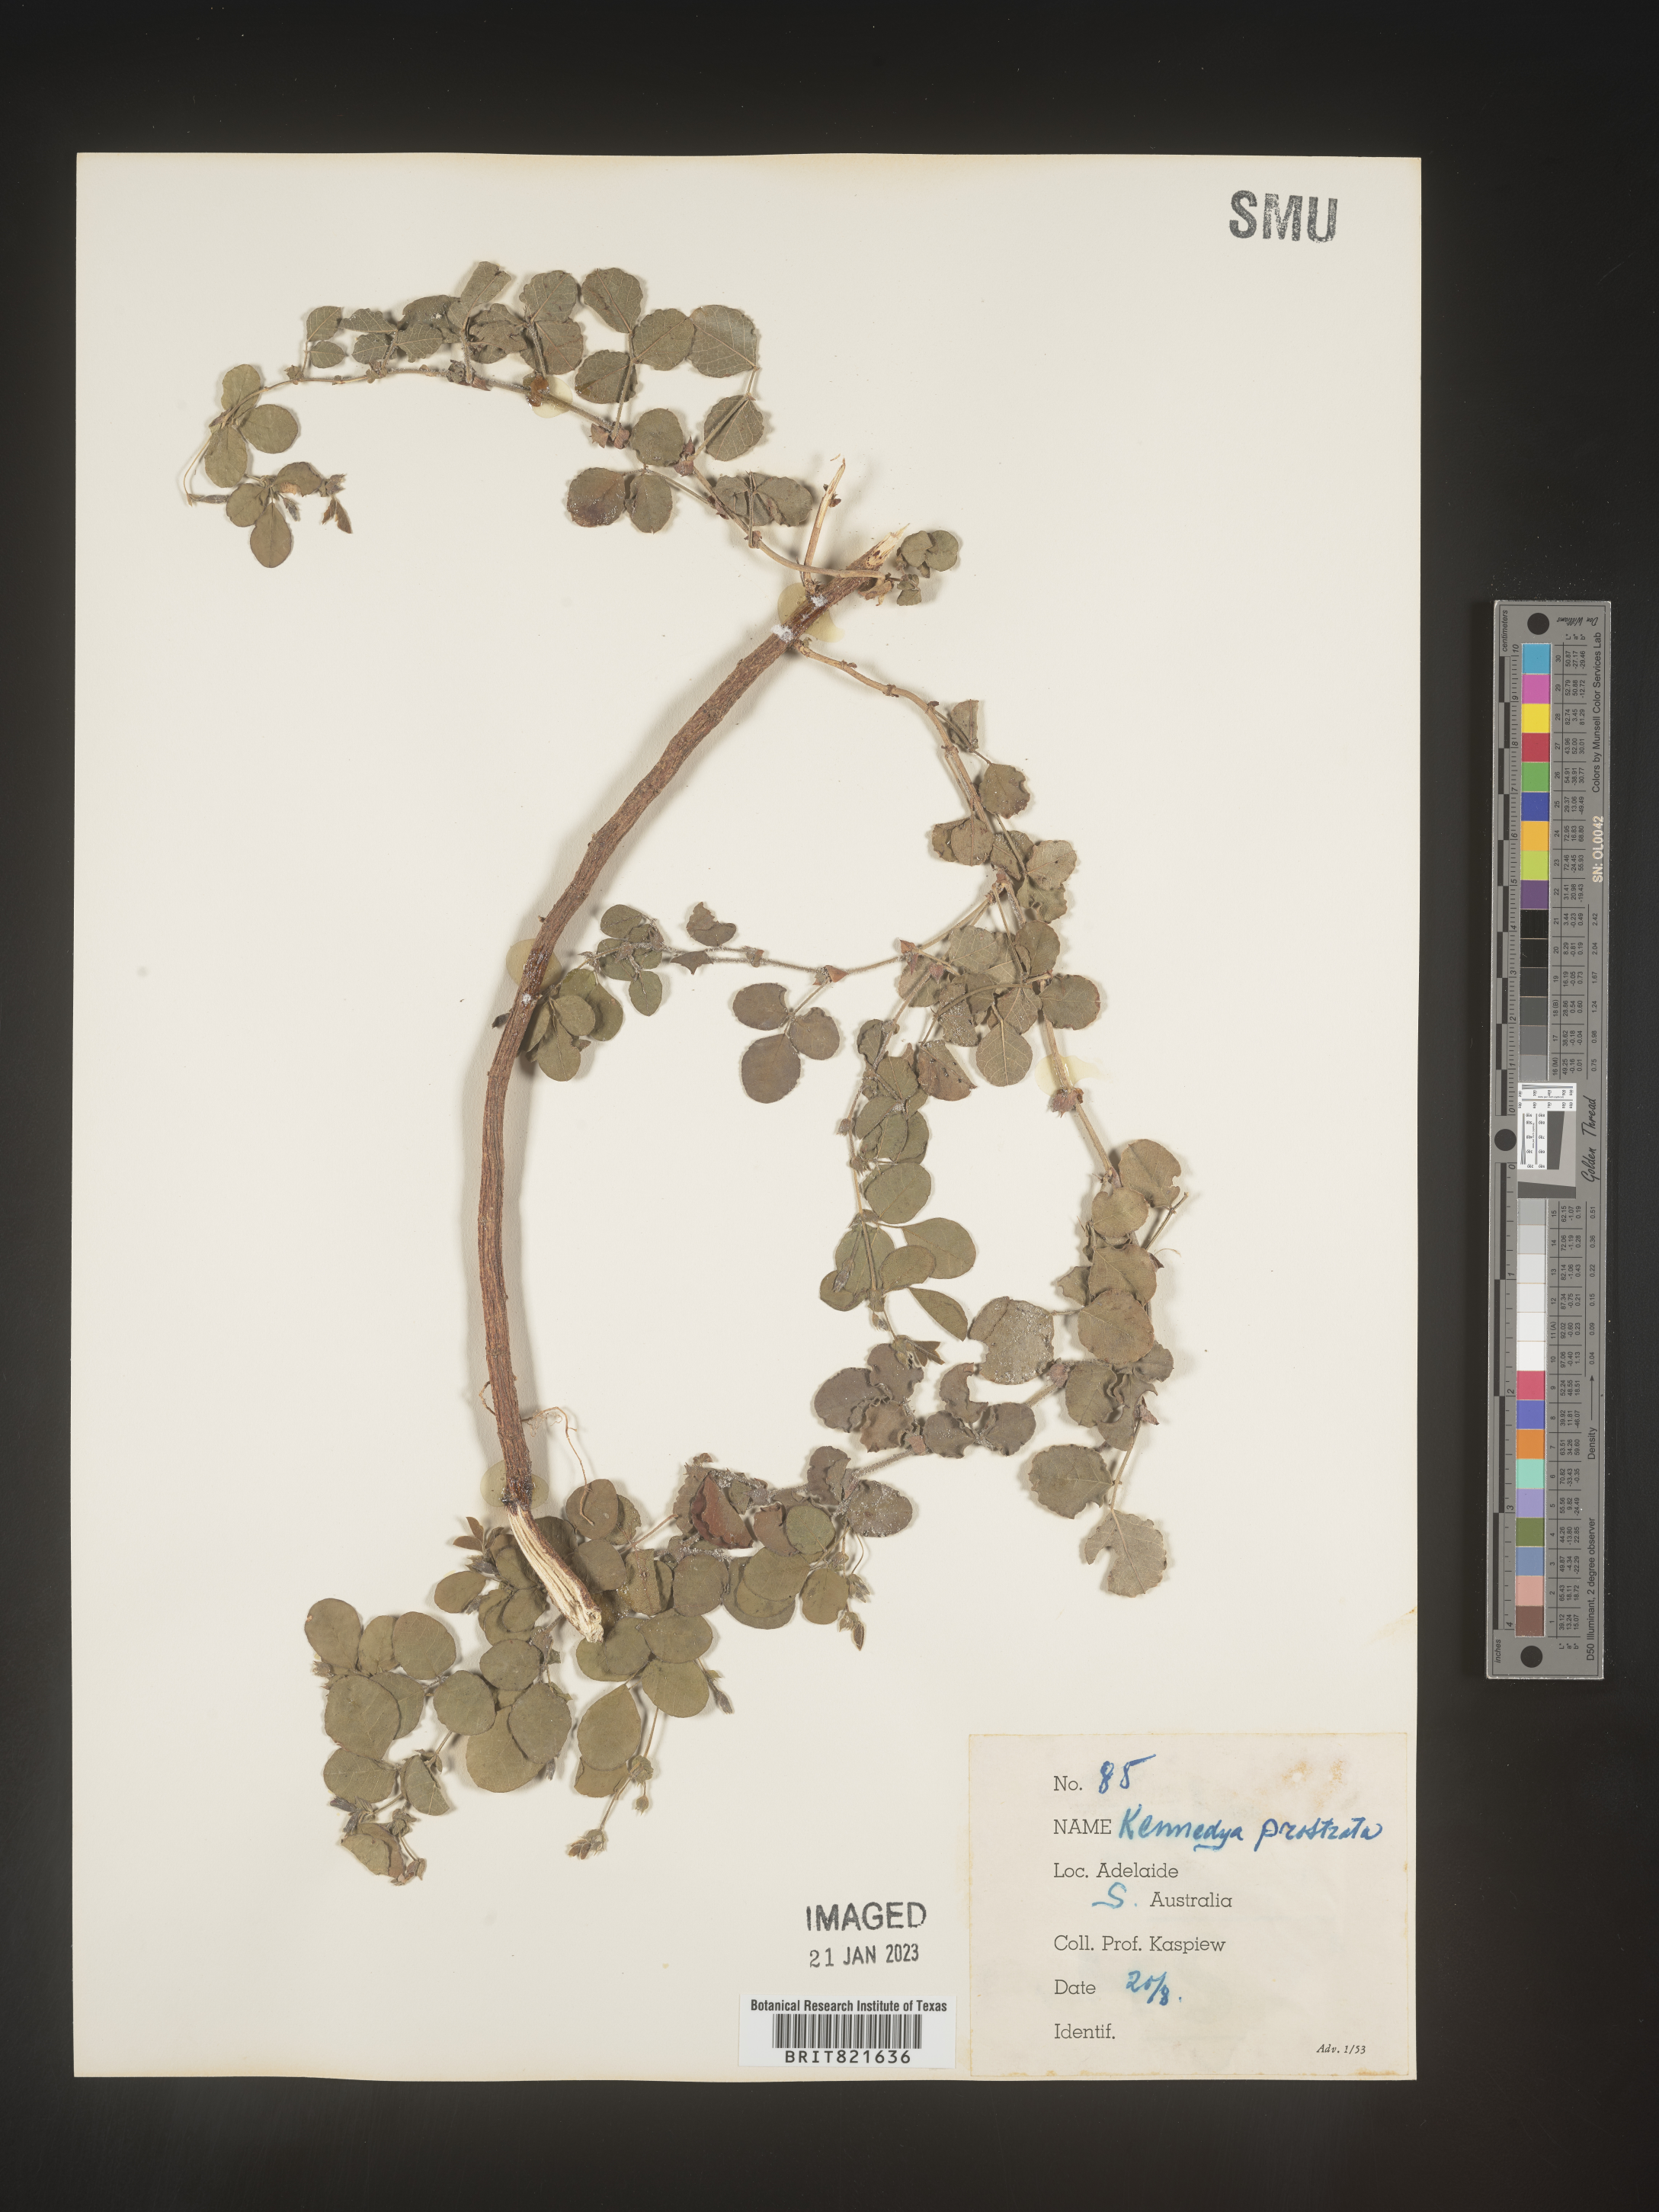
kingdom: Plantae
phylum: Tracheophyta
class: Magnoliopsida
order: Fabales
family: Fabaceae
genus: Kennedya
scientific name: Kennedya
